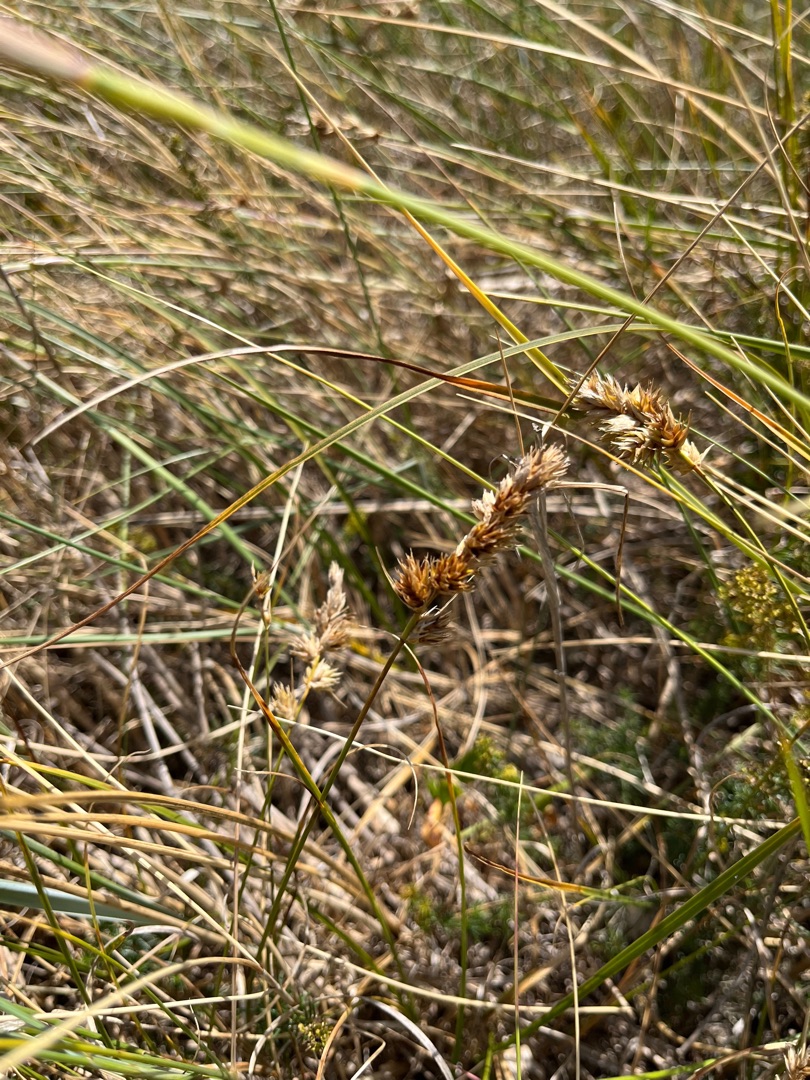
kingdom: Plantae
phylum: Tracheophyta
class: Liliopsida
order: Poales
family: Cyperaceae
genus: Carex
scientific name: Carex arenaria
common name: Sand-star
